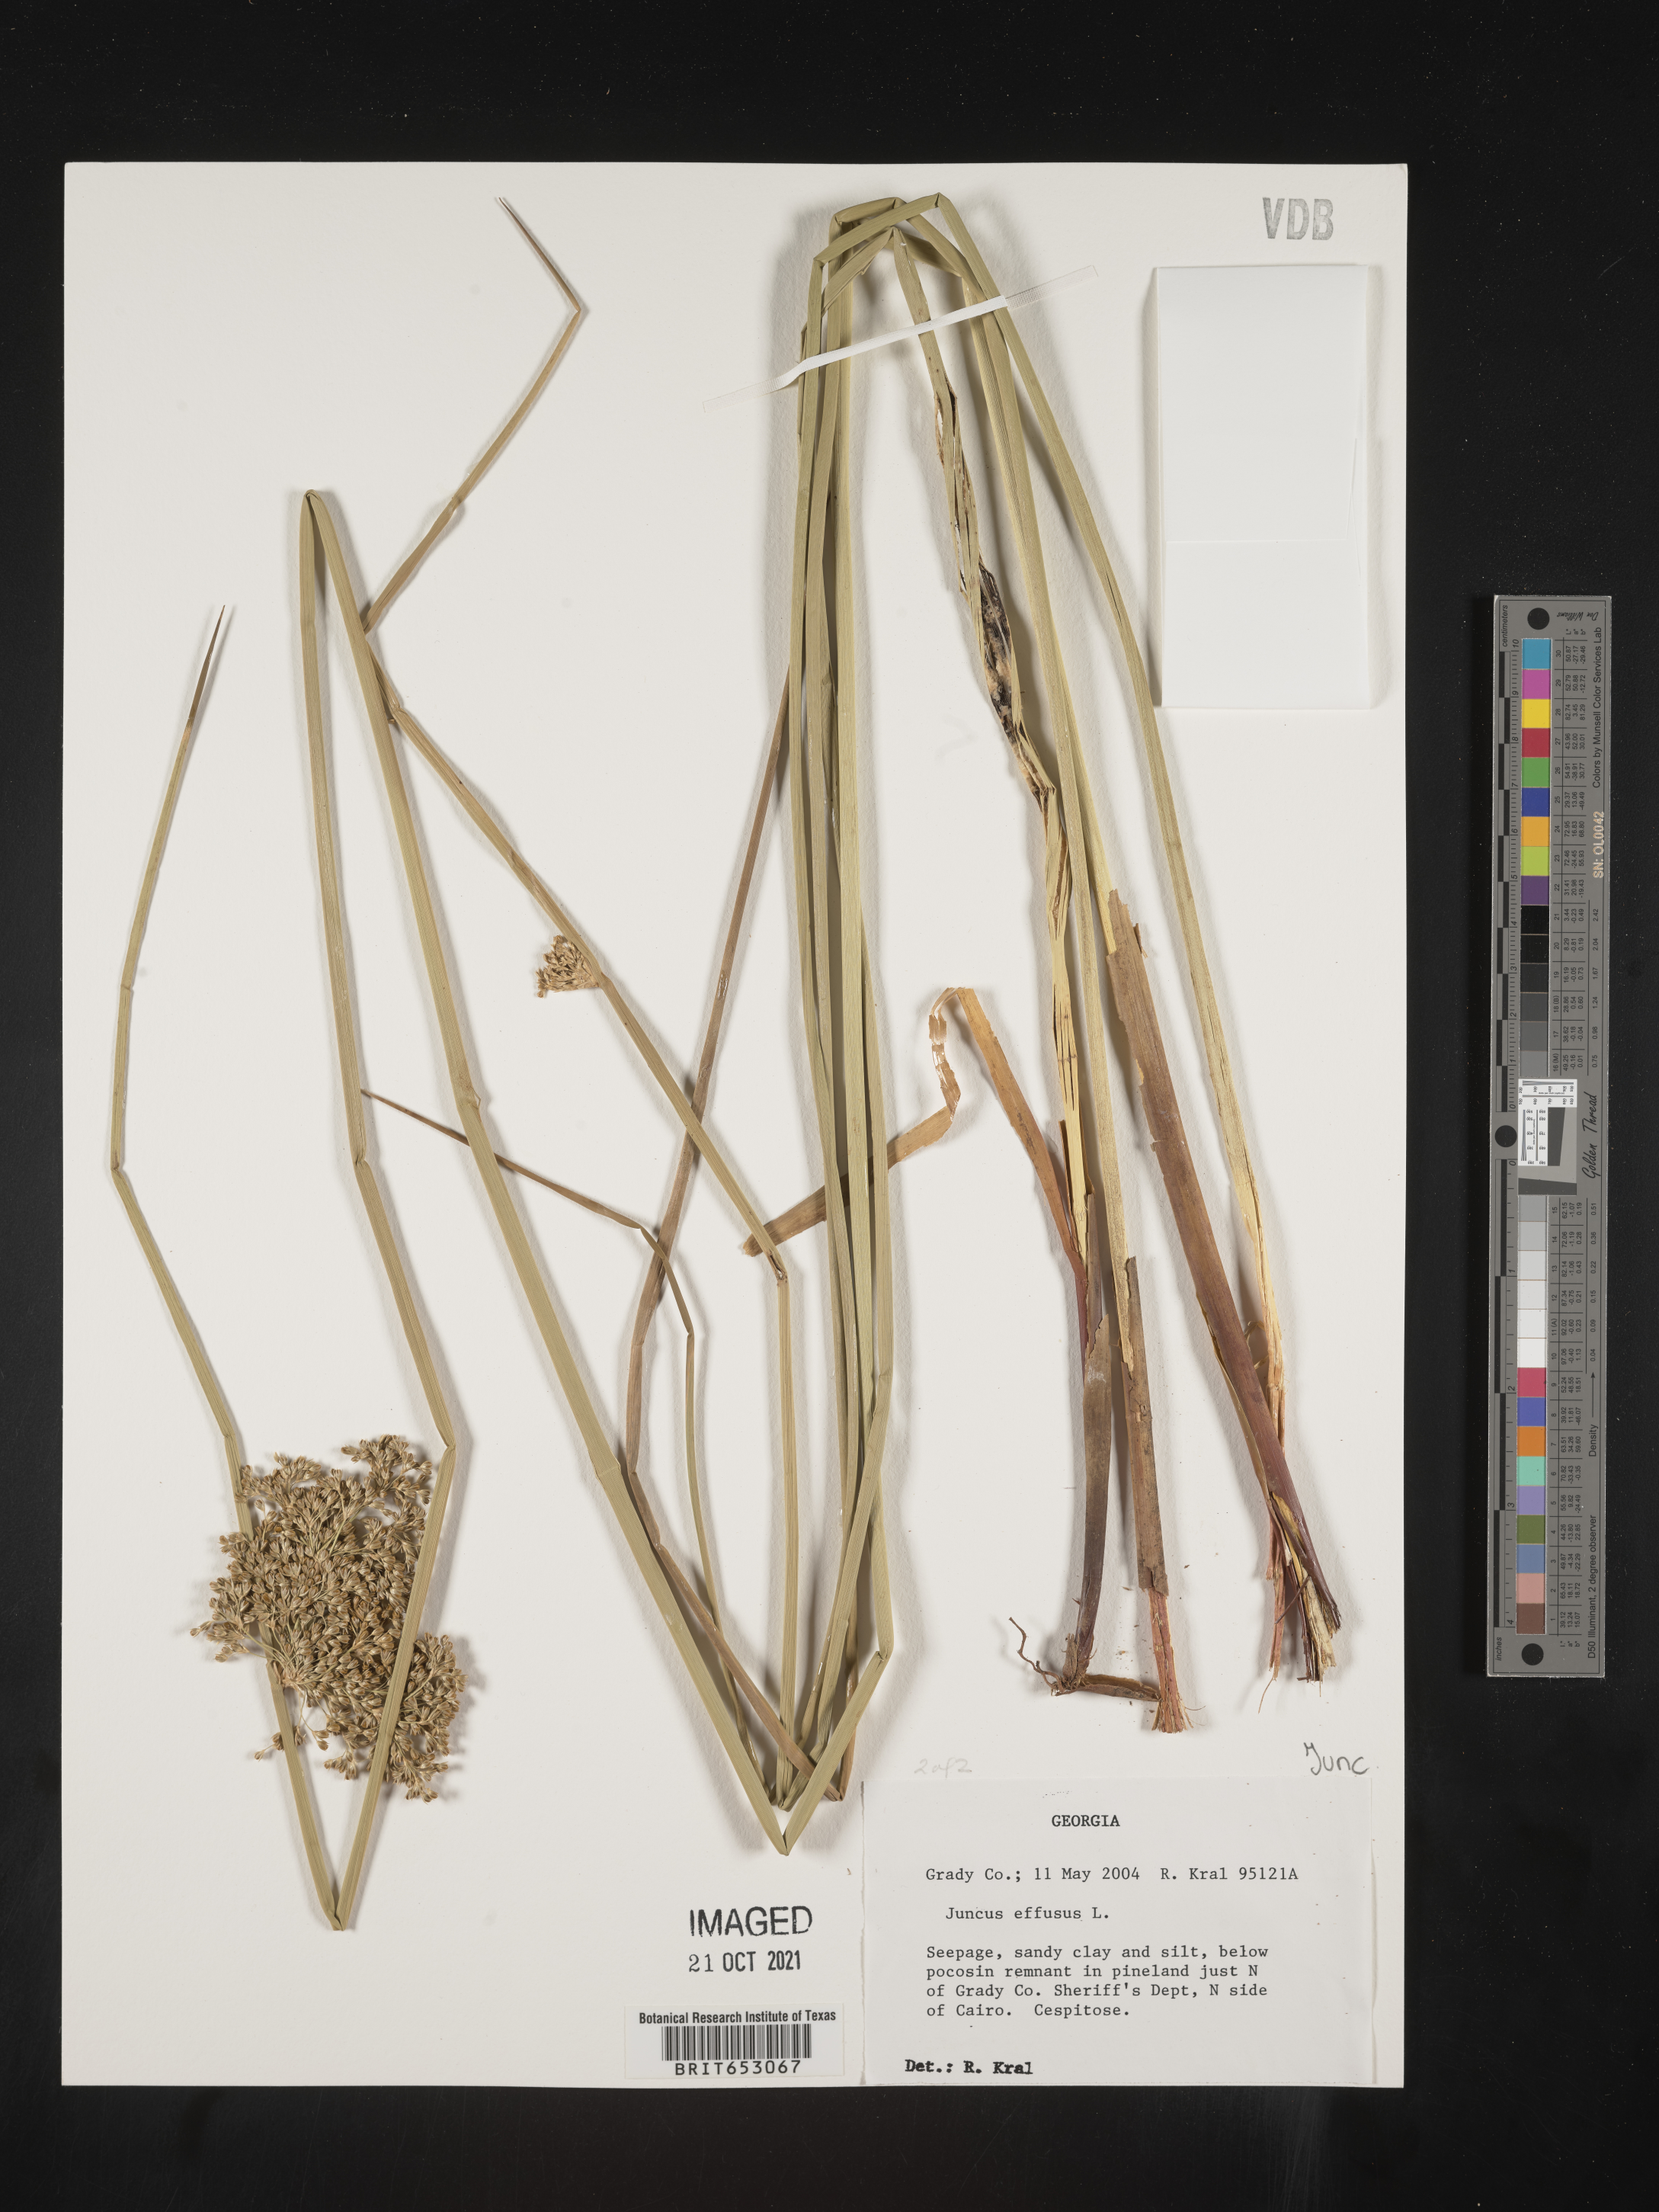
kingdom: Plantae
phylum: Tracheophyta
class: Liliopsida
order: Poales
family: Juncaceae
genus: Juncus
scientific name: Juncus effusus
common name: Soft rush
